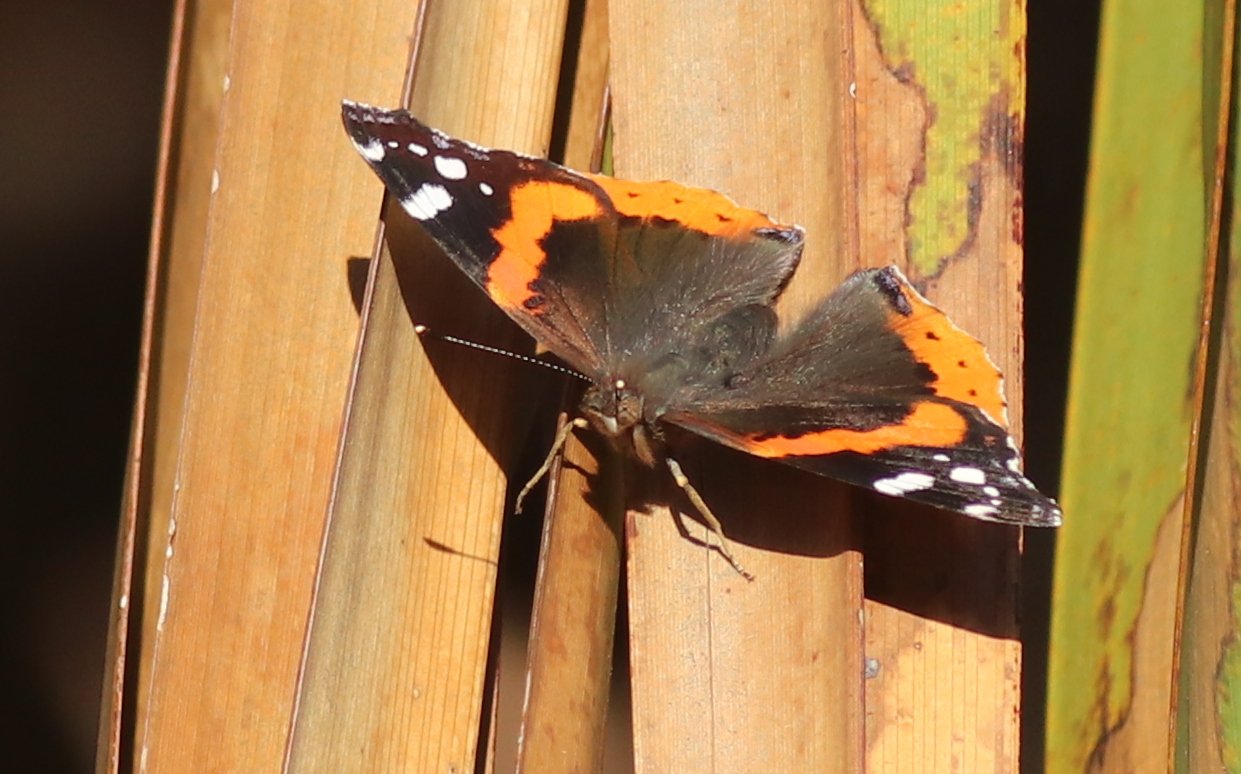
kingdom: Animalia
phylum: Arthropoda
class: Insecta
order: Lepidoptera
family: Nymphalidae
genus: Vanessa
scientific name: Vanessa atalanta
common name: Red Admiral
